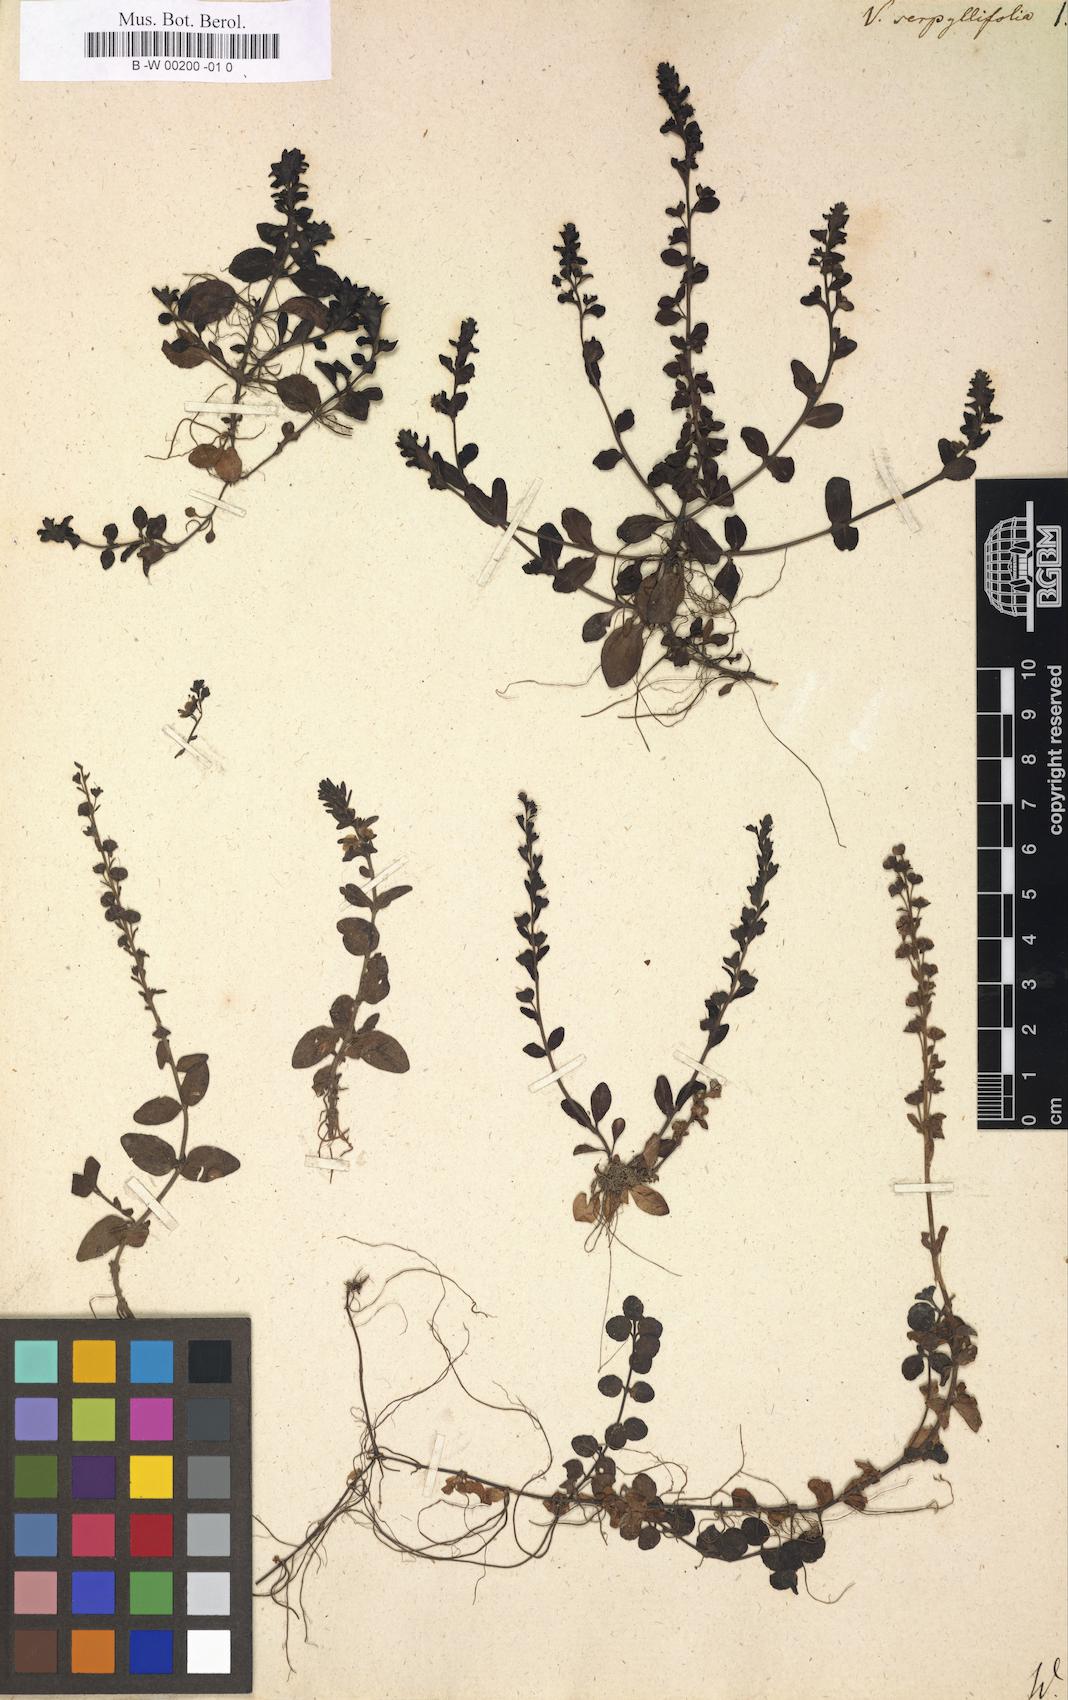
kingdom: Plantae
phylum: Tracheophyta
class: Magnoliopsida
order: Lamiales
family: Plantaginaceae
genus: Veronica
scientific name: Veronica serpyllifolia
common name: Thyme-leaved speedwell
